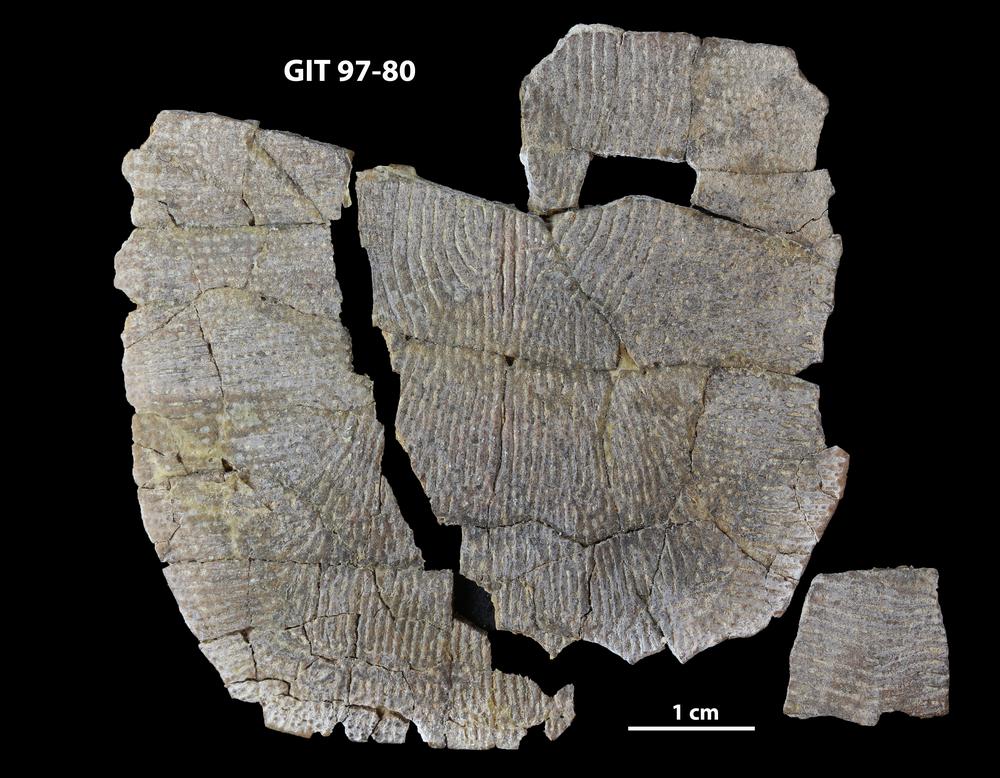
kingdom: Animalia
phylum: Chordata
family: Holonematidae
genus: Holonema
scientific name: Holonema
